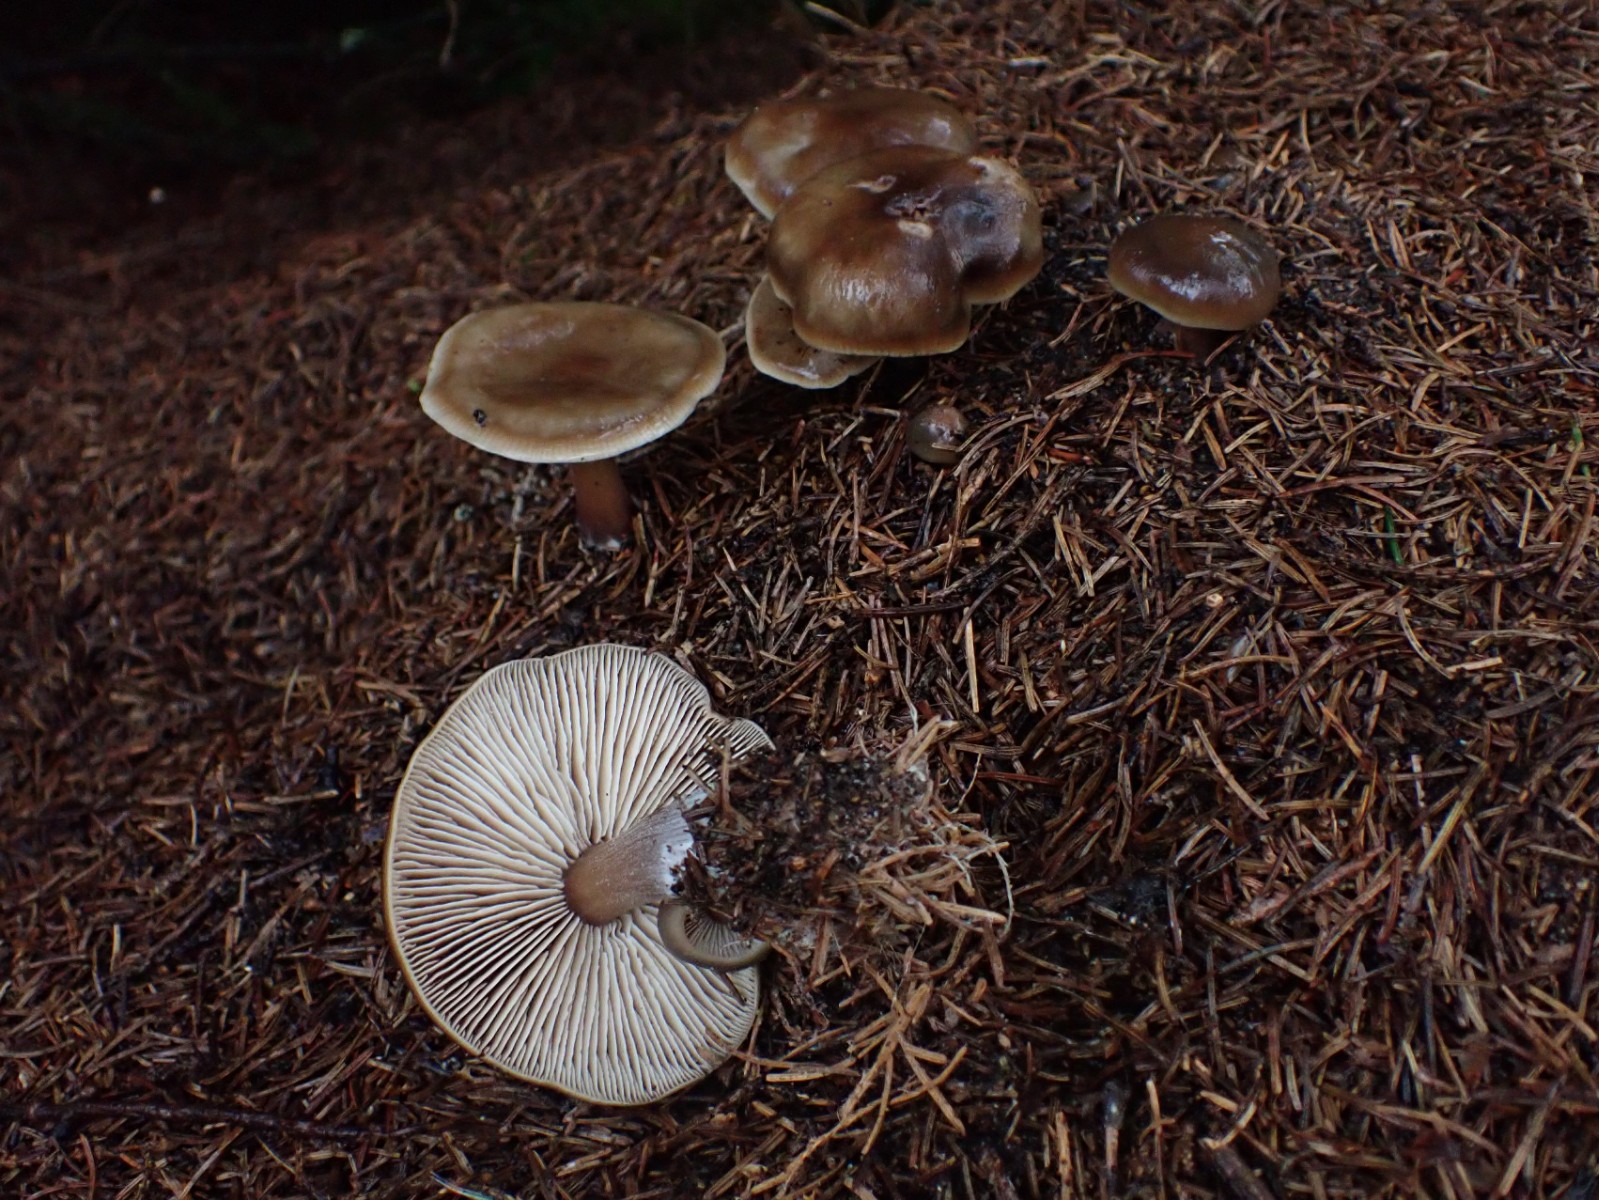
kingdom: Fungi
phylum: Basidiomycota
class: Agaricomycetes
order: Agaricales
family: Omphalotaceae
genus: Rhodocollybia
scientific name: Rhodocollybia asema
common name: horngrå fladhat
